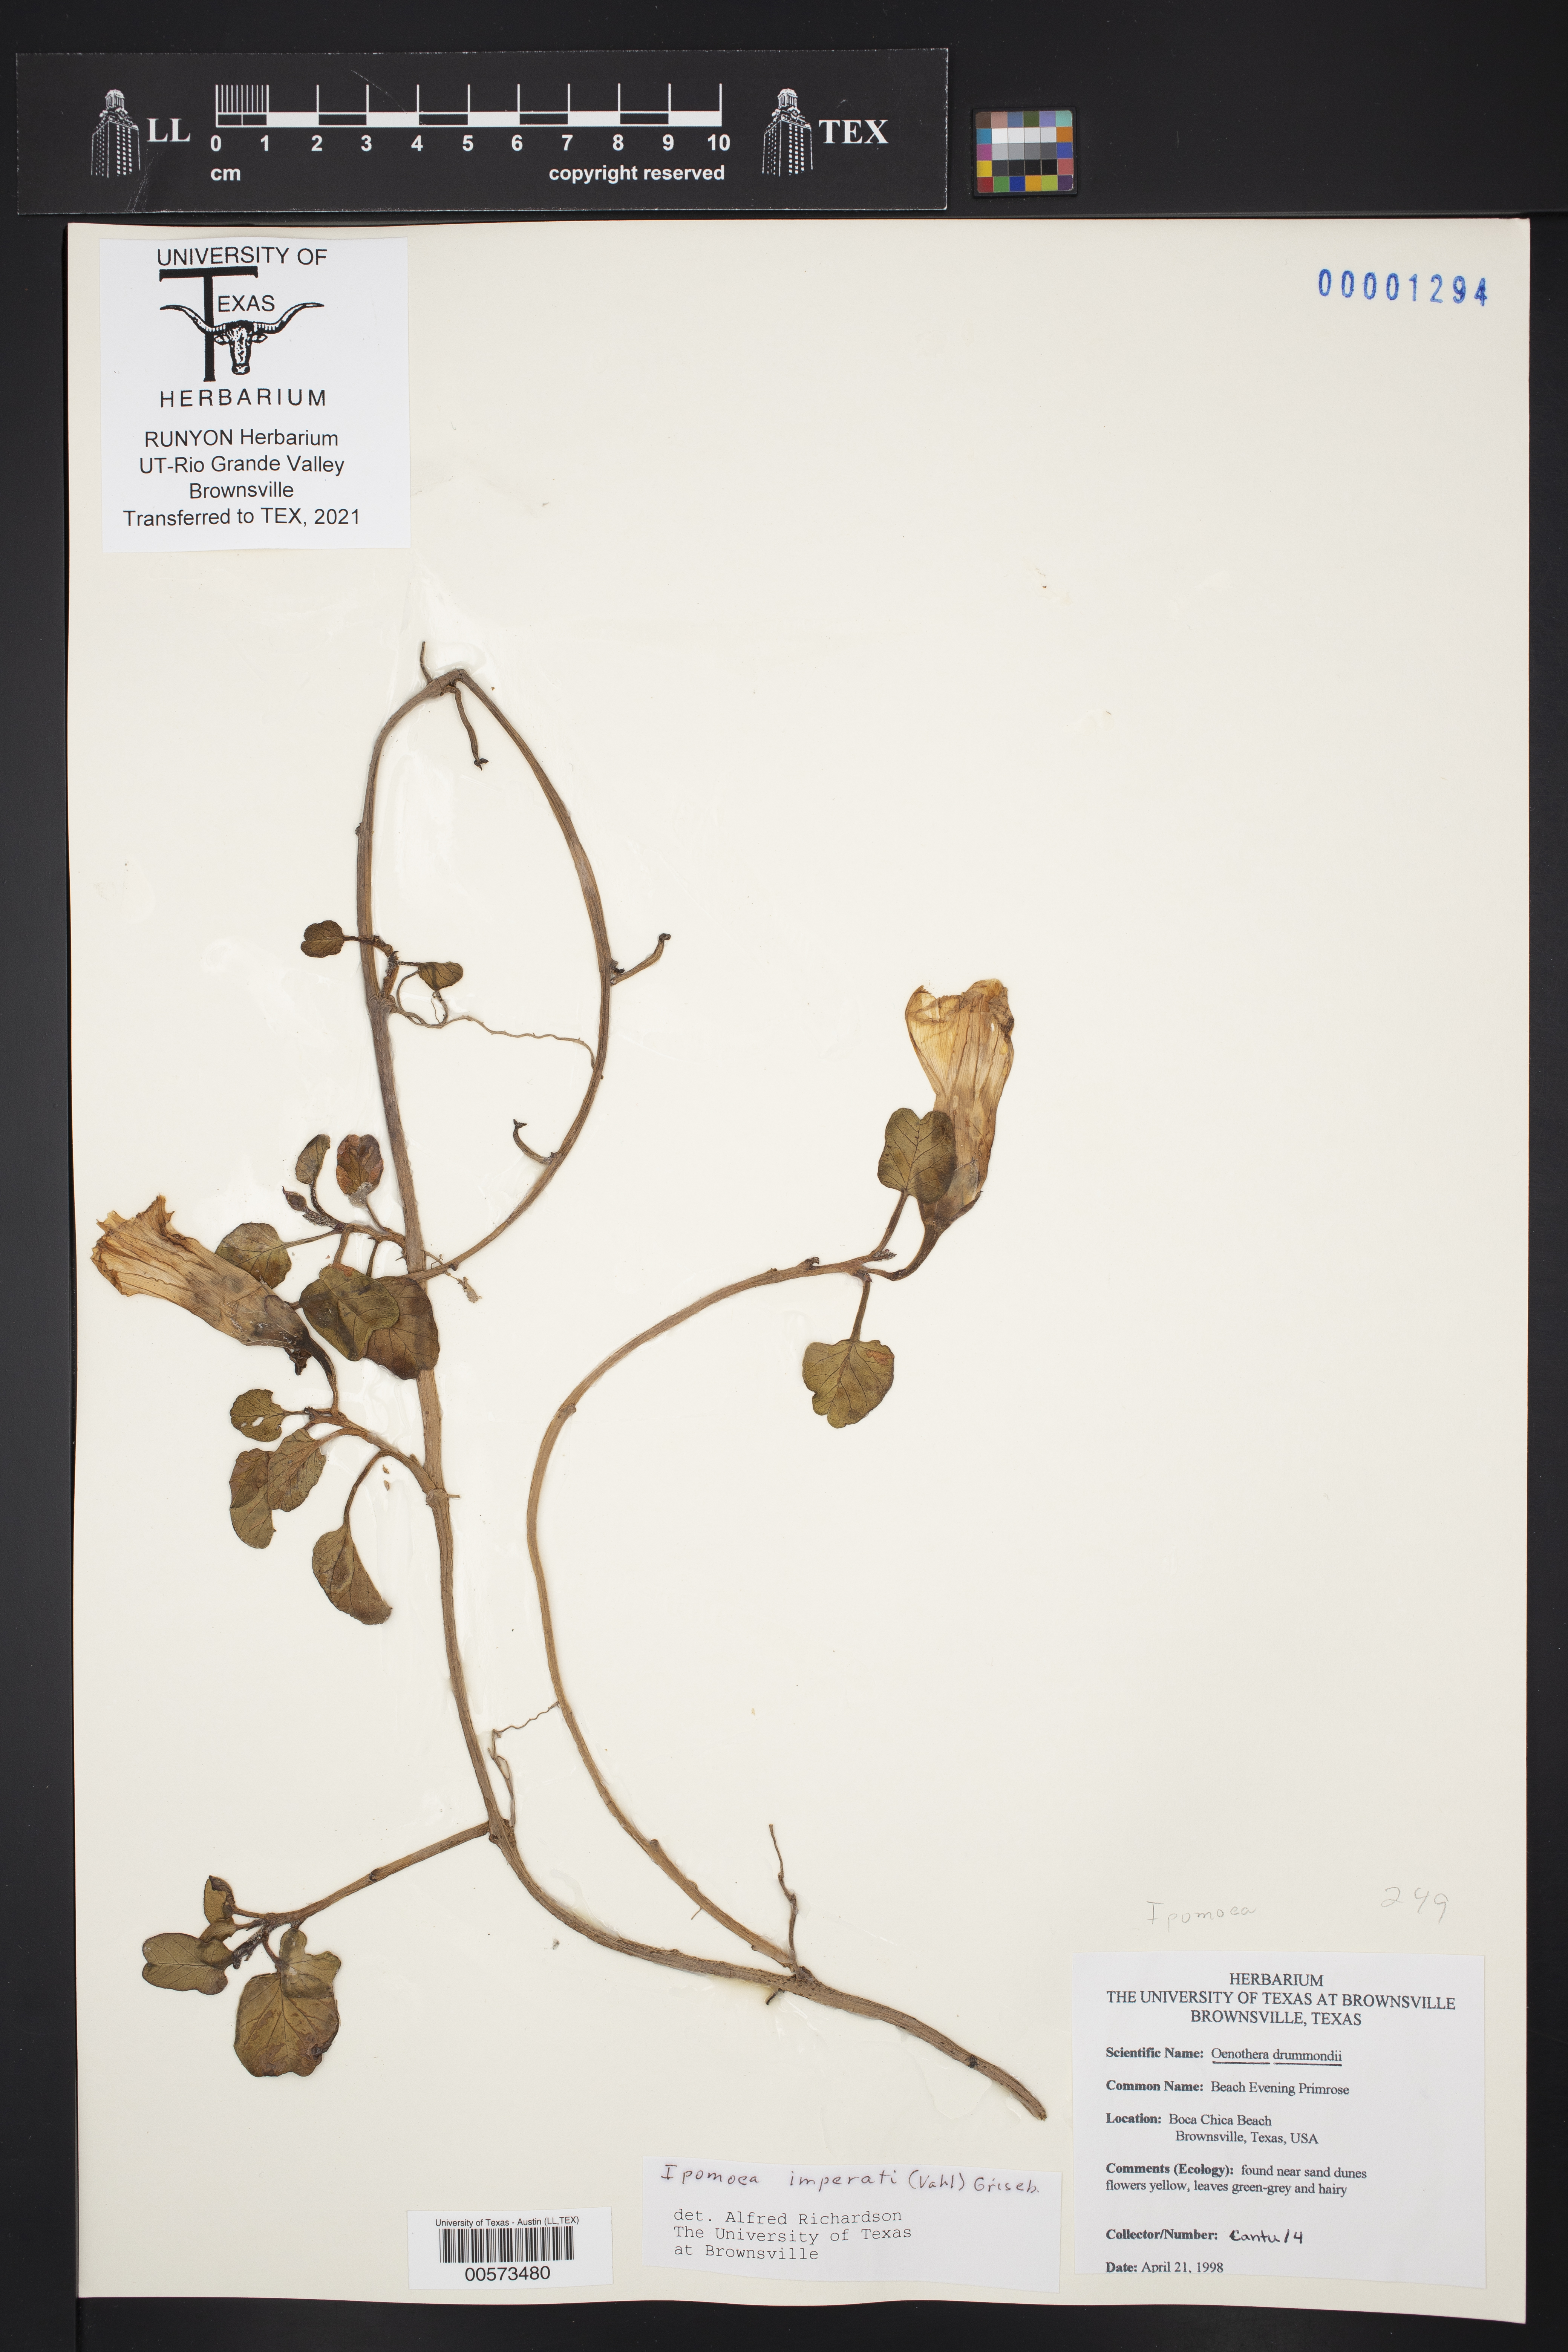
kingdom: Plantae
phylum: Tracheophyta
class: Magnoliopsida
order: Solanales
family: Convolvulaceae
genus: Ipomoea
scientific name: Ipomoea imperati
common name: Fiddle-leaf morning-glory
